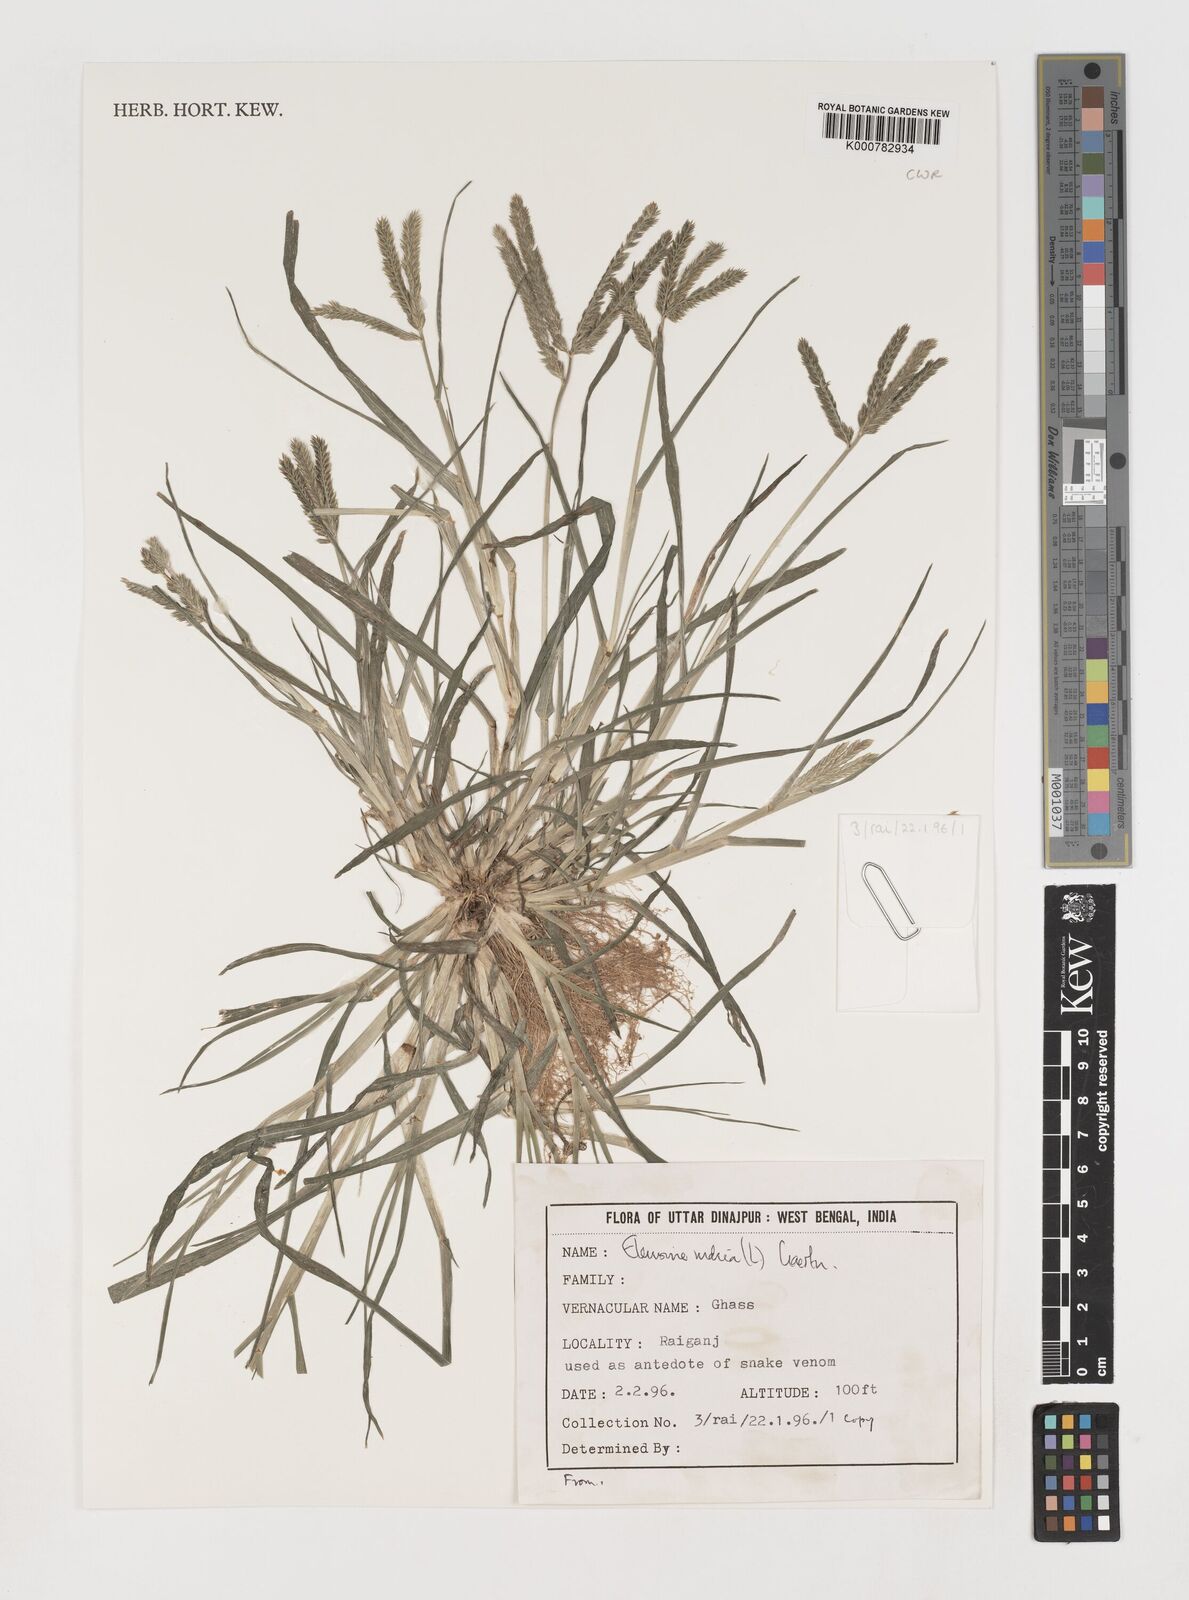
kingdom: Plantae
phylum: Tracheophyta
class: Liliopsida
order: Poales
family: Poaceae
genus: Eleusine
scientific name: Eleusine indica
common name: Yard-grass
